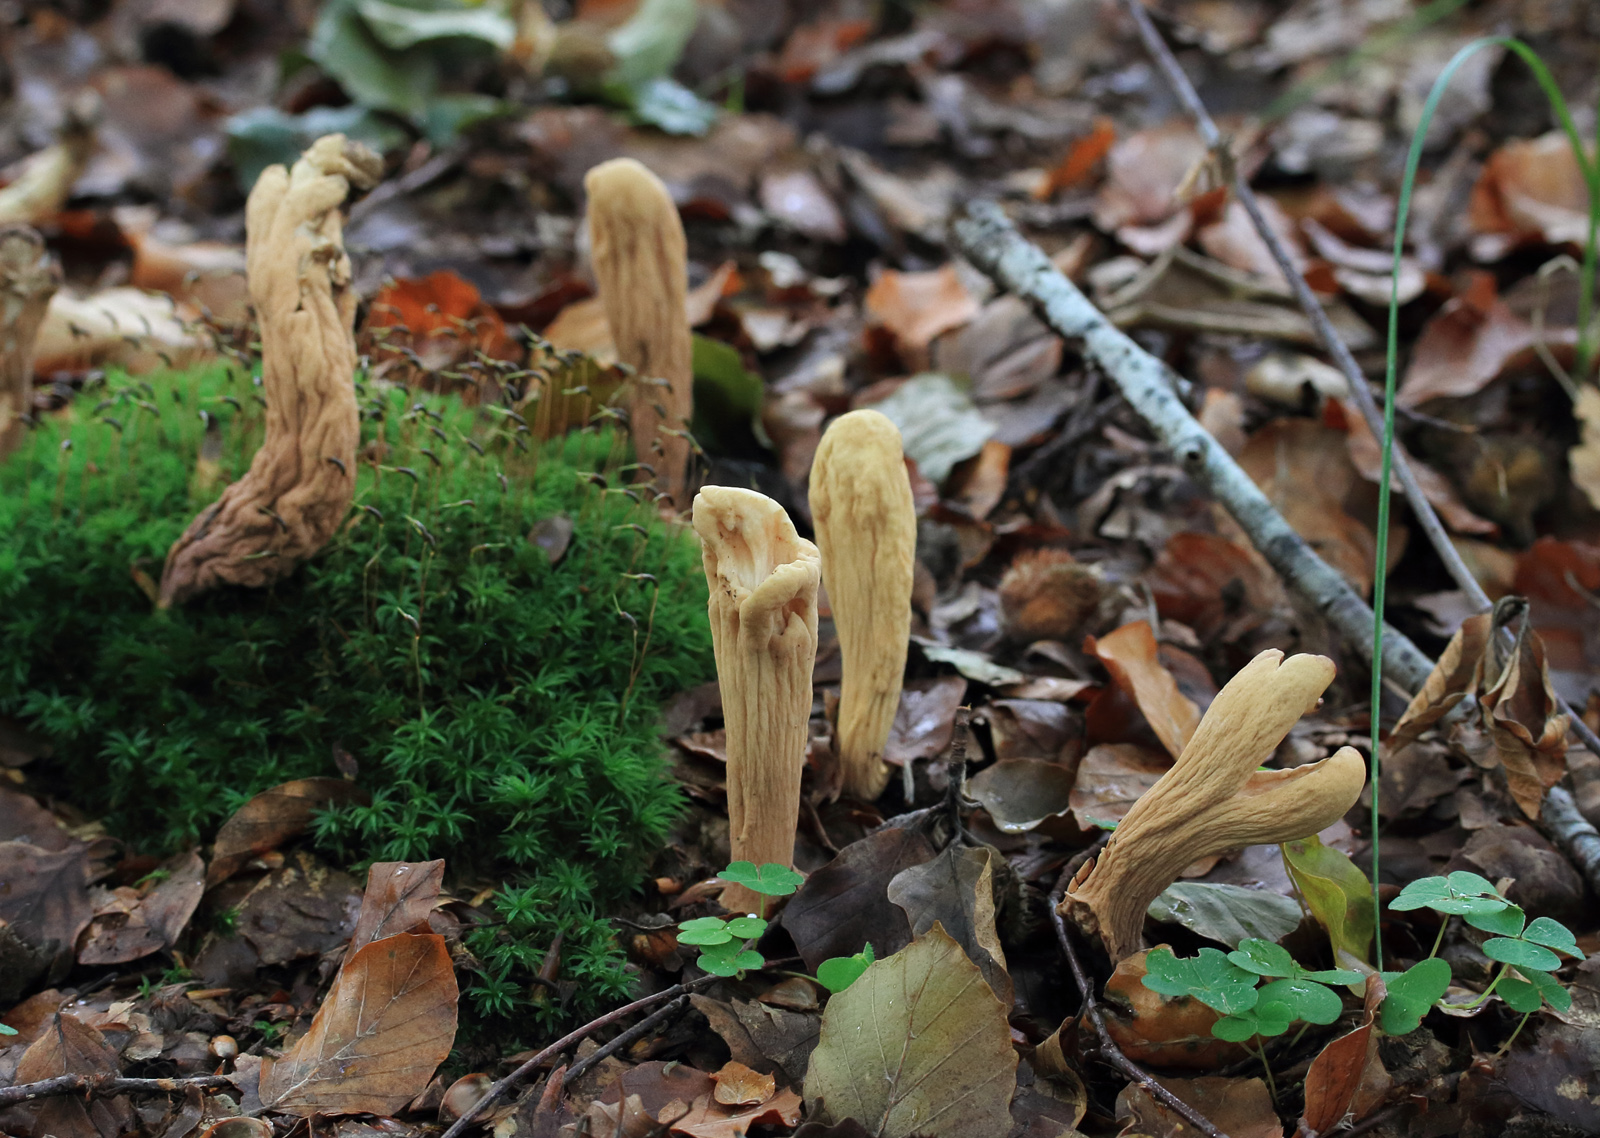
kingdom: Fungi
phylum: Basidiomycota
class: Agaricomycetes
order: Gomphales
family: Clavariadelphaceae
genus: Clavariadelphus
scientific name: Clavariadelphus pistillaris
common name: herkules-kæmpekølle
